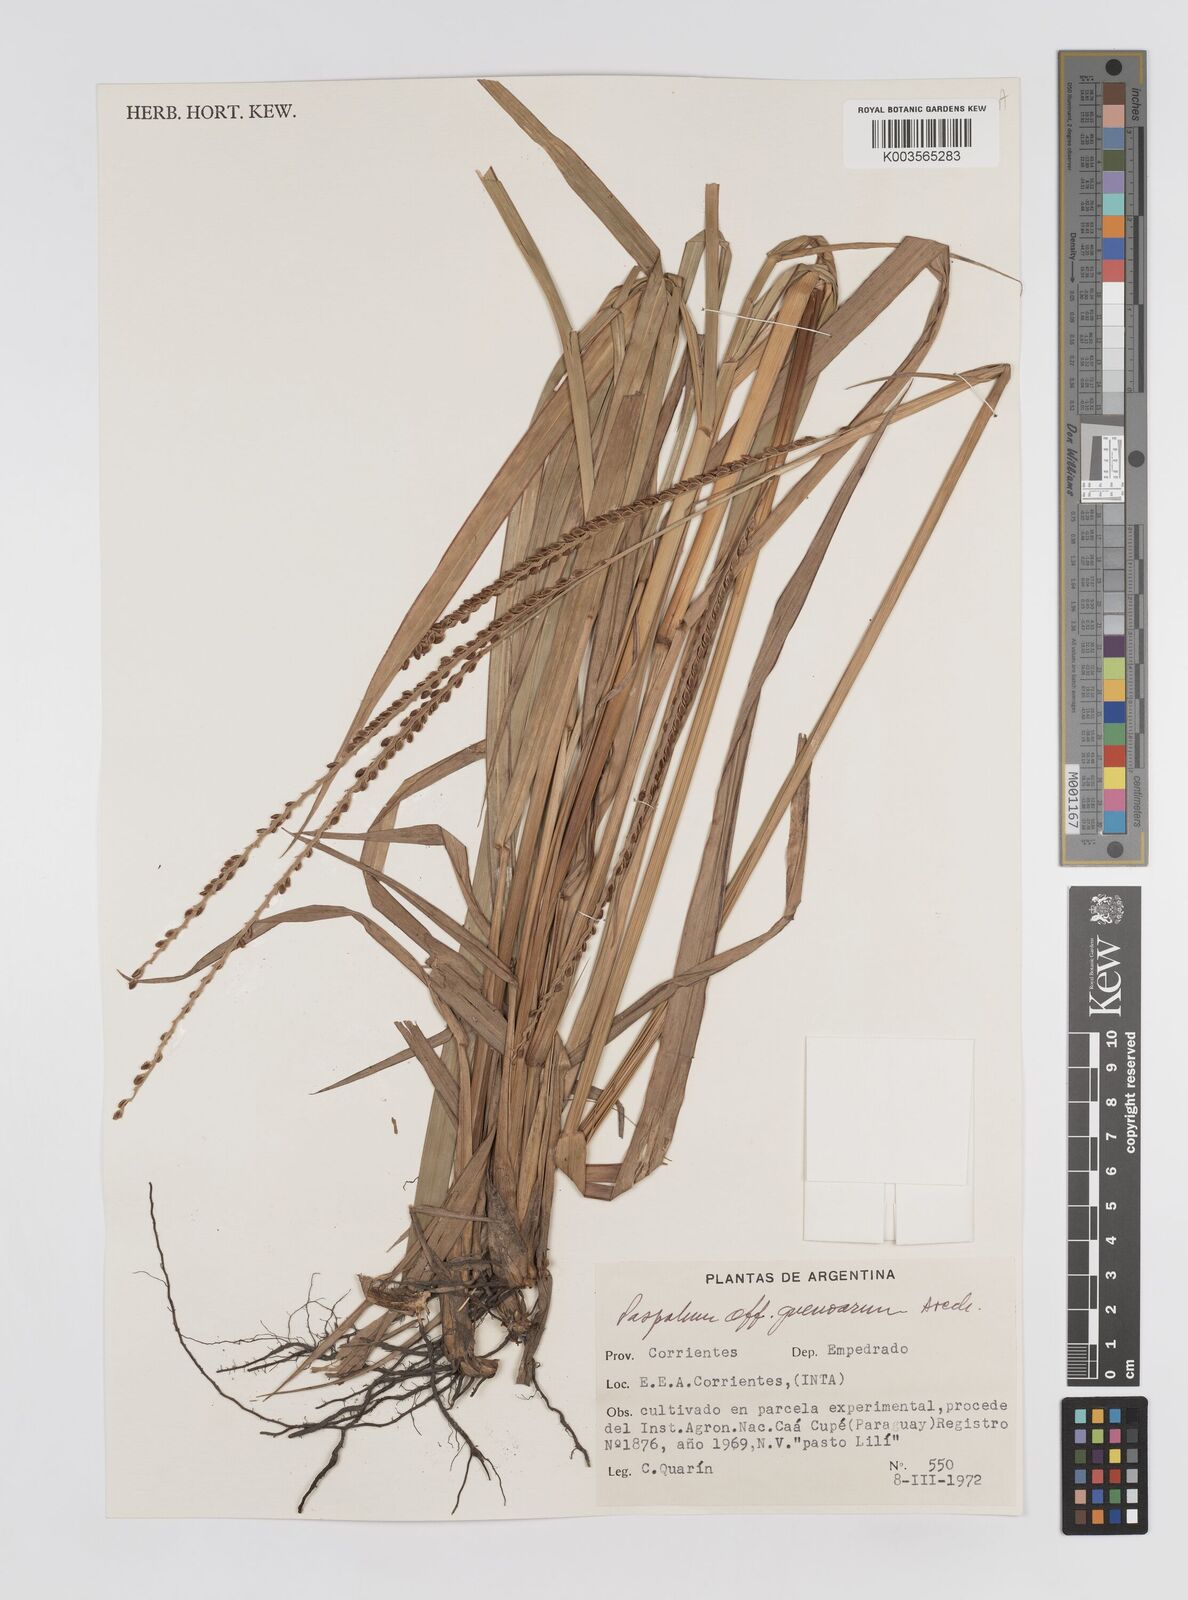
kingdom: Plantae
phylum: Tracheophyta
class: Liliopsida
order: Poales
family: Poaceae
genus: Paspalum
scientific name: Paspalum guenoarum
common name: Wintergreen paspalum
